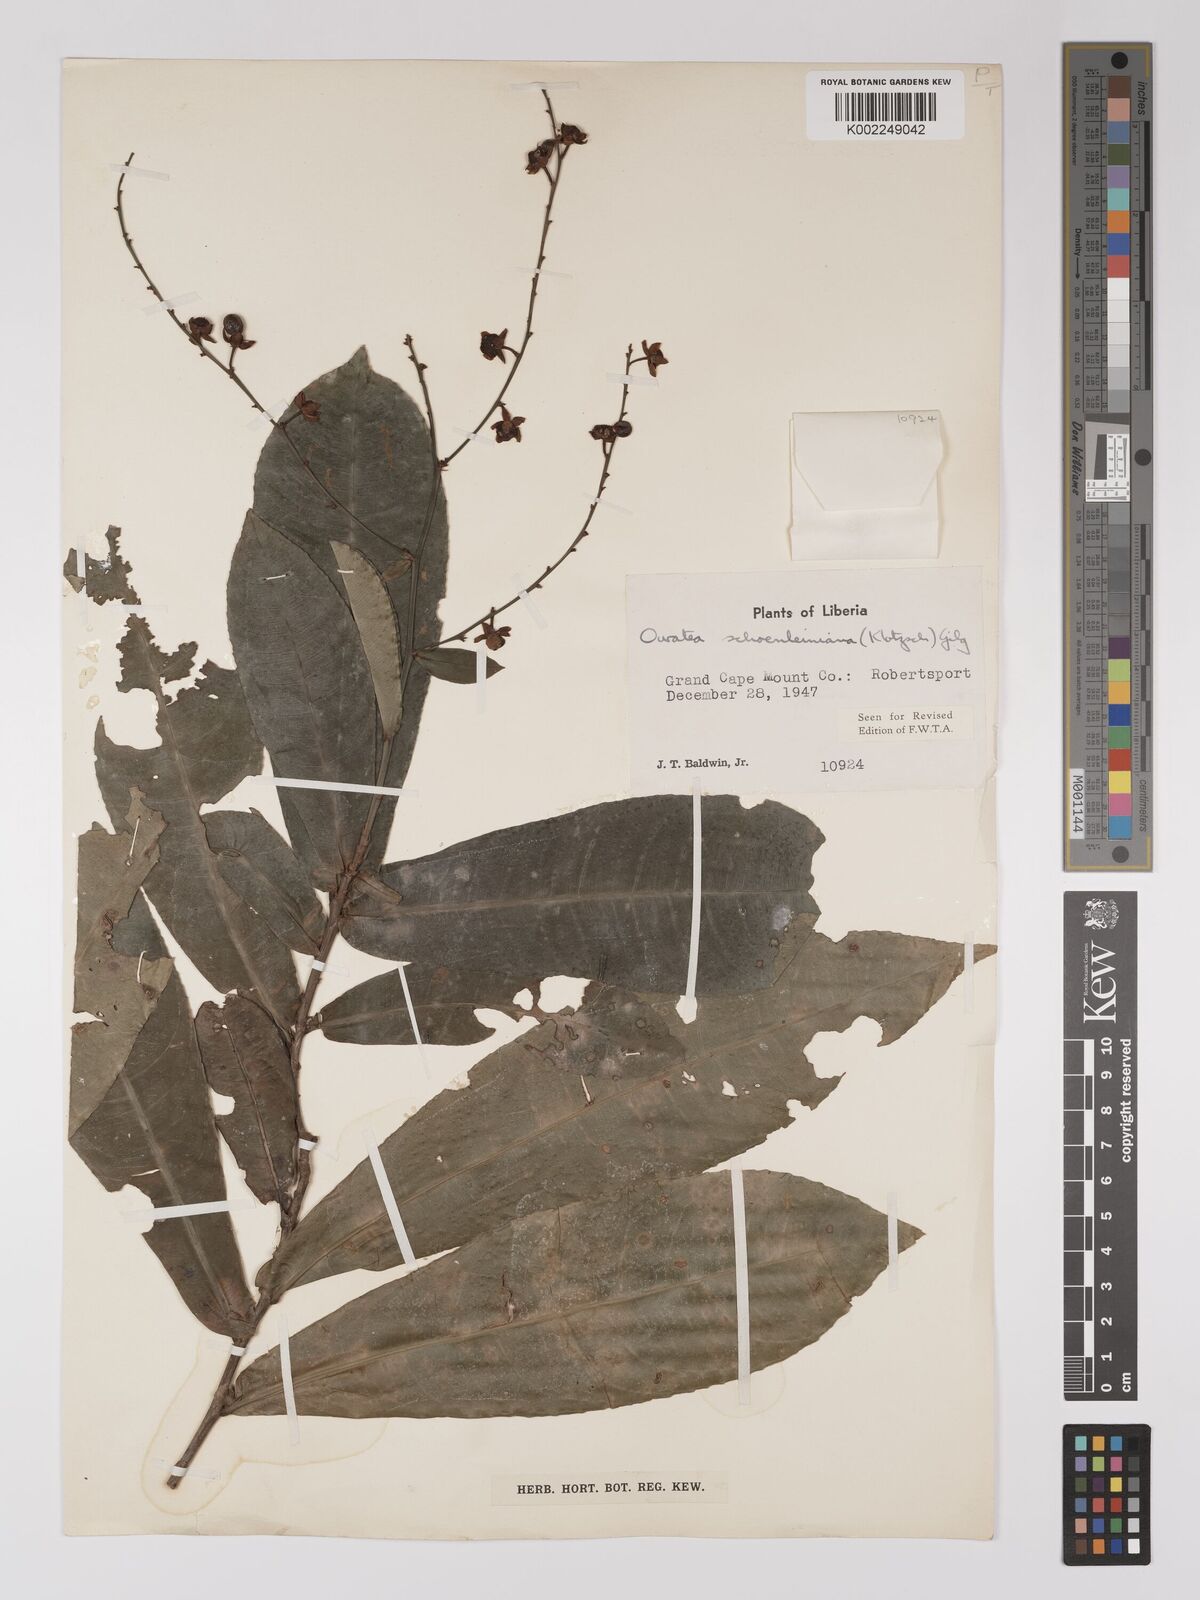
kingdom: Plantae
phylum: Tracheophyta
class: Magnoliopsida
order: Malpighiales
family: Ochnaceae
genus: Campylospermum
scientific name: Campylospermum schoenleinianum
